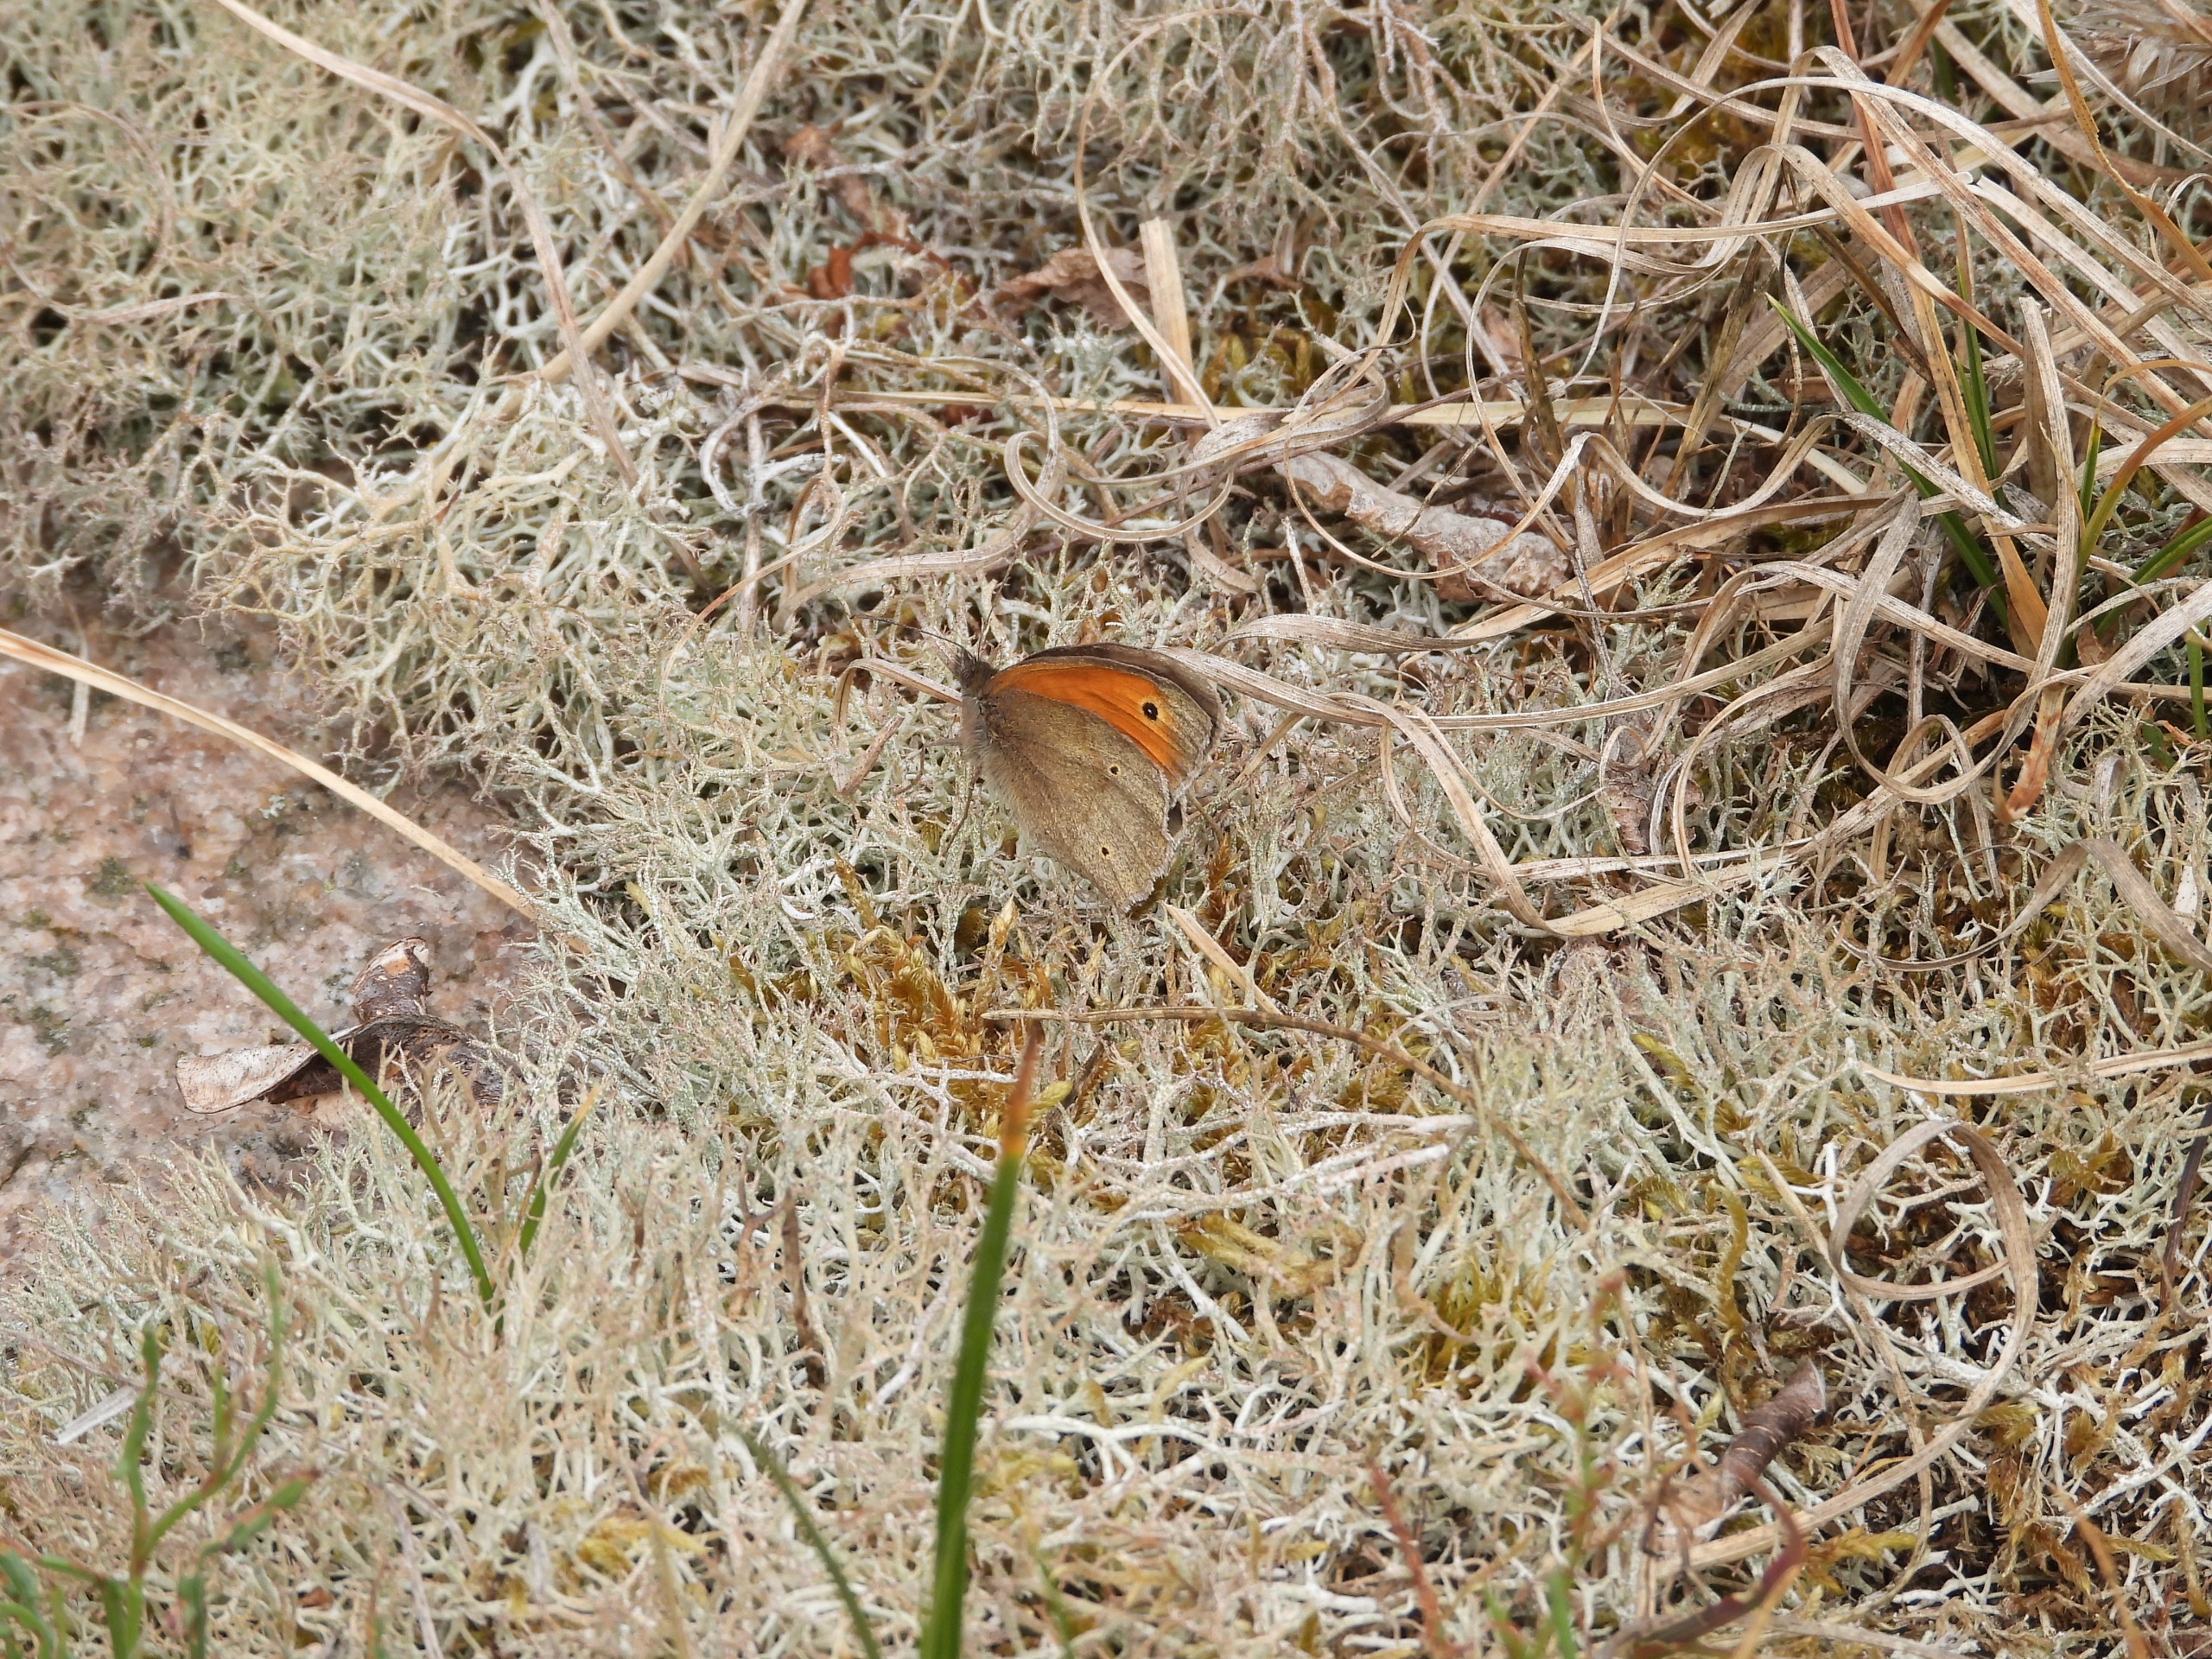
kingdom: Animalia
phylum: Arthropoda
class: Insecta
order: Lepidoptera
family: Nymphalidae
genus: Maniola
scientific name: Maniola jurtina
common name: Græsrandøje
